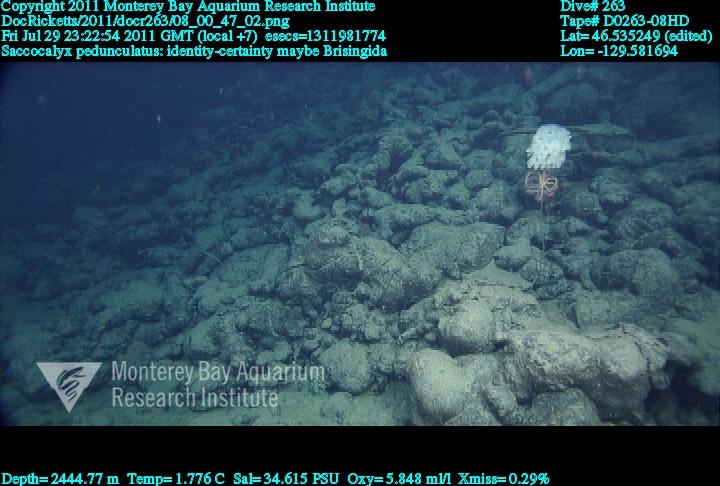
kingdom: Animalia
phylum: Porifera
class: Hexactinellida
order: Lyssacinosida
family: Euplectellidae
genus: Saccocalyx
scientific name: Saccocalyx pedunculatus
